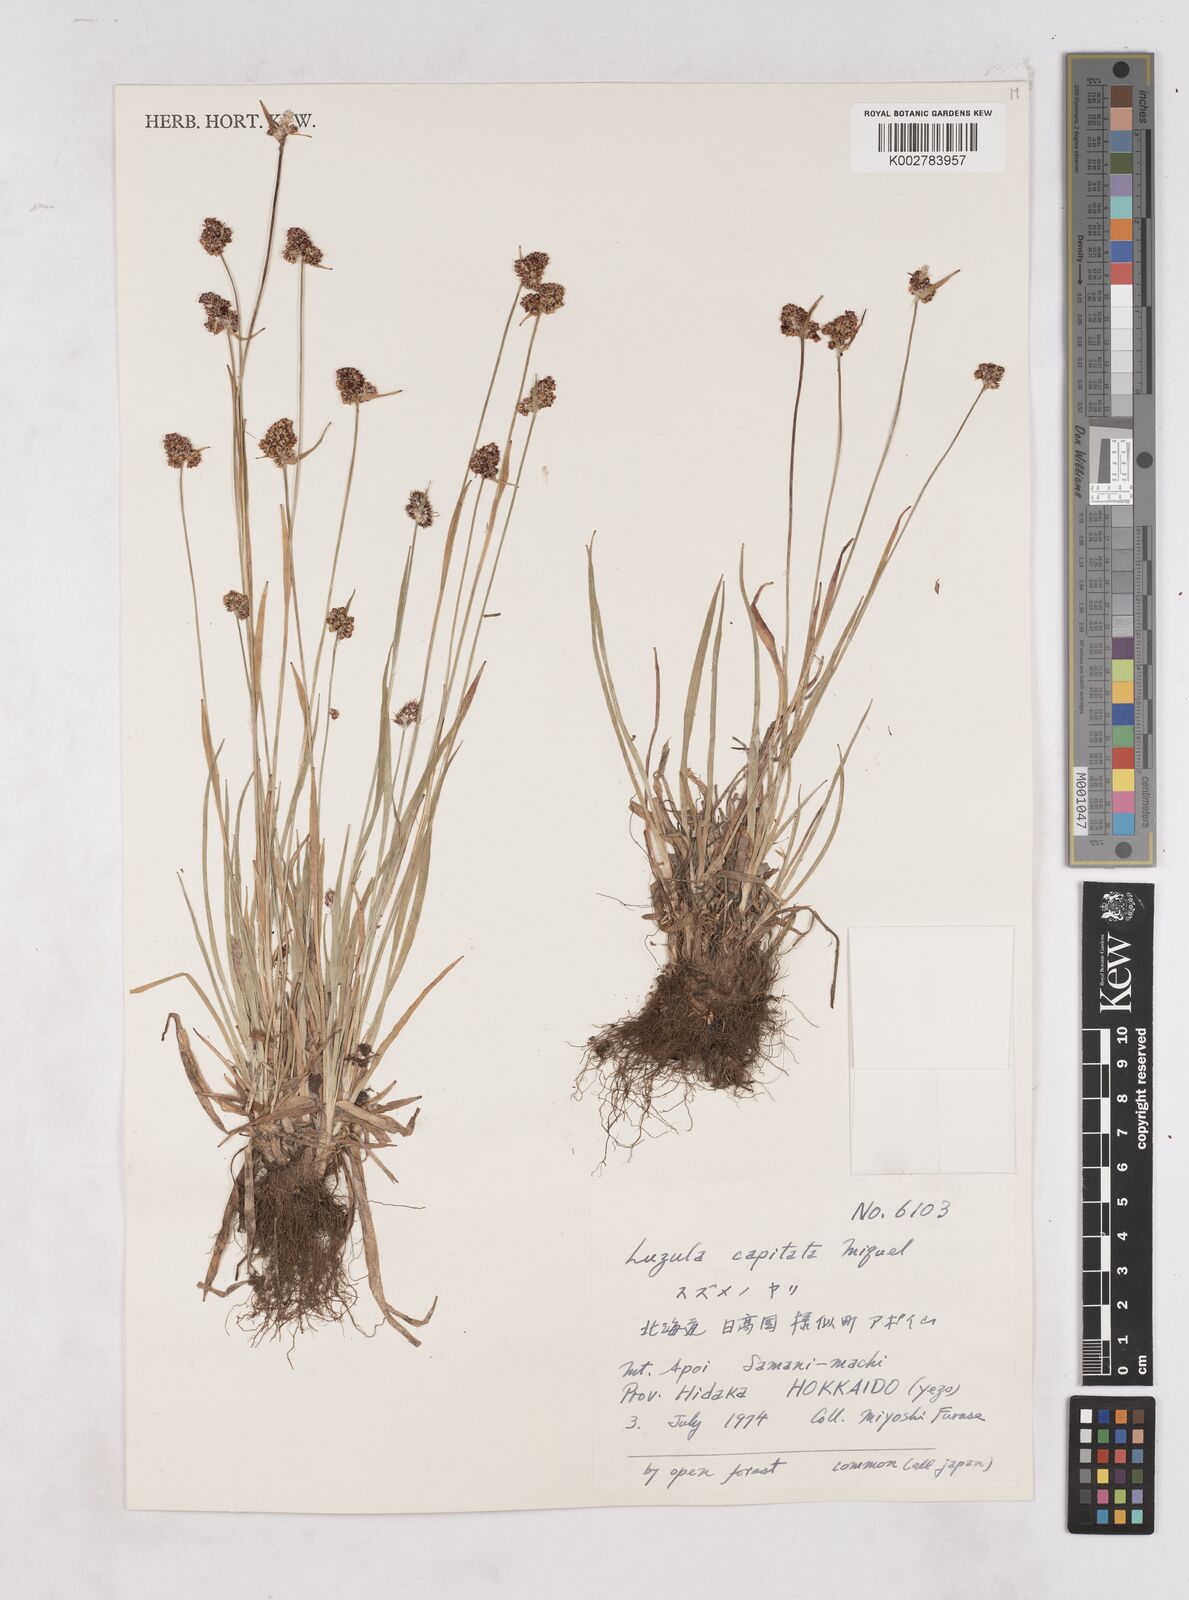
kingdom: Plantae
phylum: Tracheophyta
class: Liliopsida
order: Poales
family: Juncaceae
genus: Luzula
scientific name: Luzula capitata
